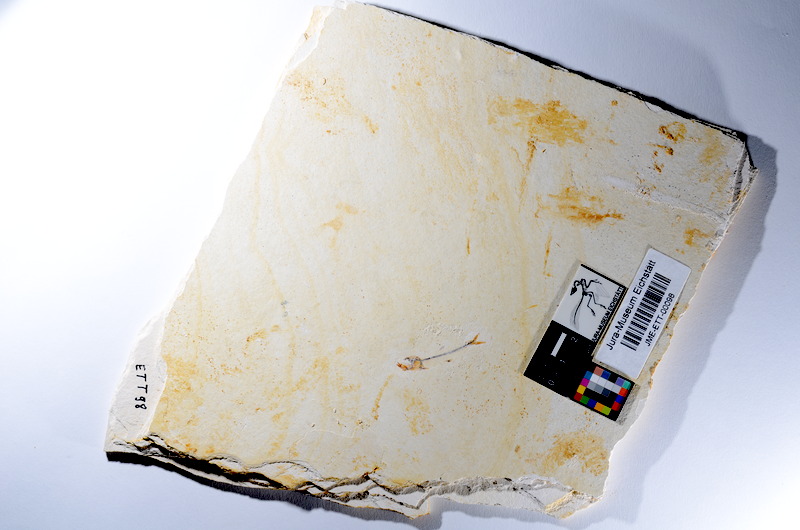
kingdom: Animalia
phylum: Chordata
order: Salmoniformes
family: Orthogonikleithridae
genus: Orthogonikleithrus
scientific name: Orthogonikleithrus hoelli
